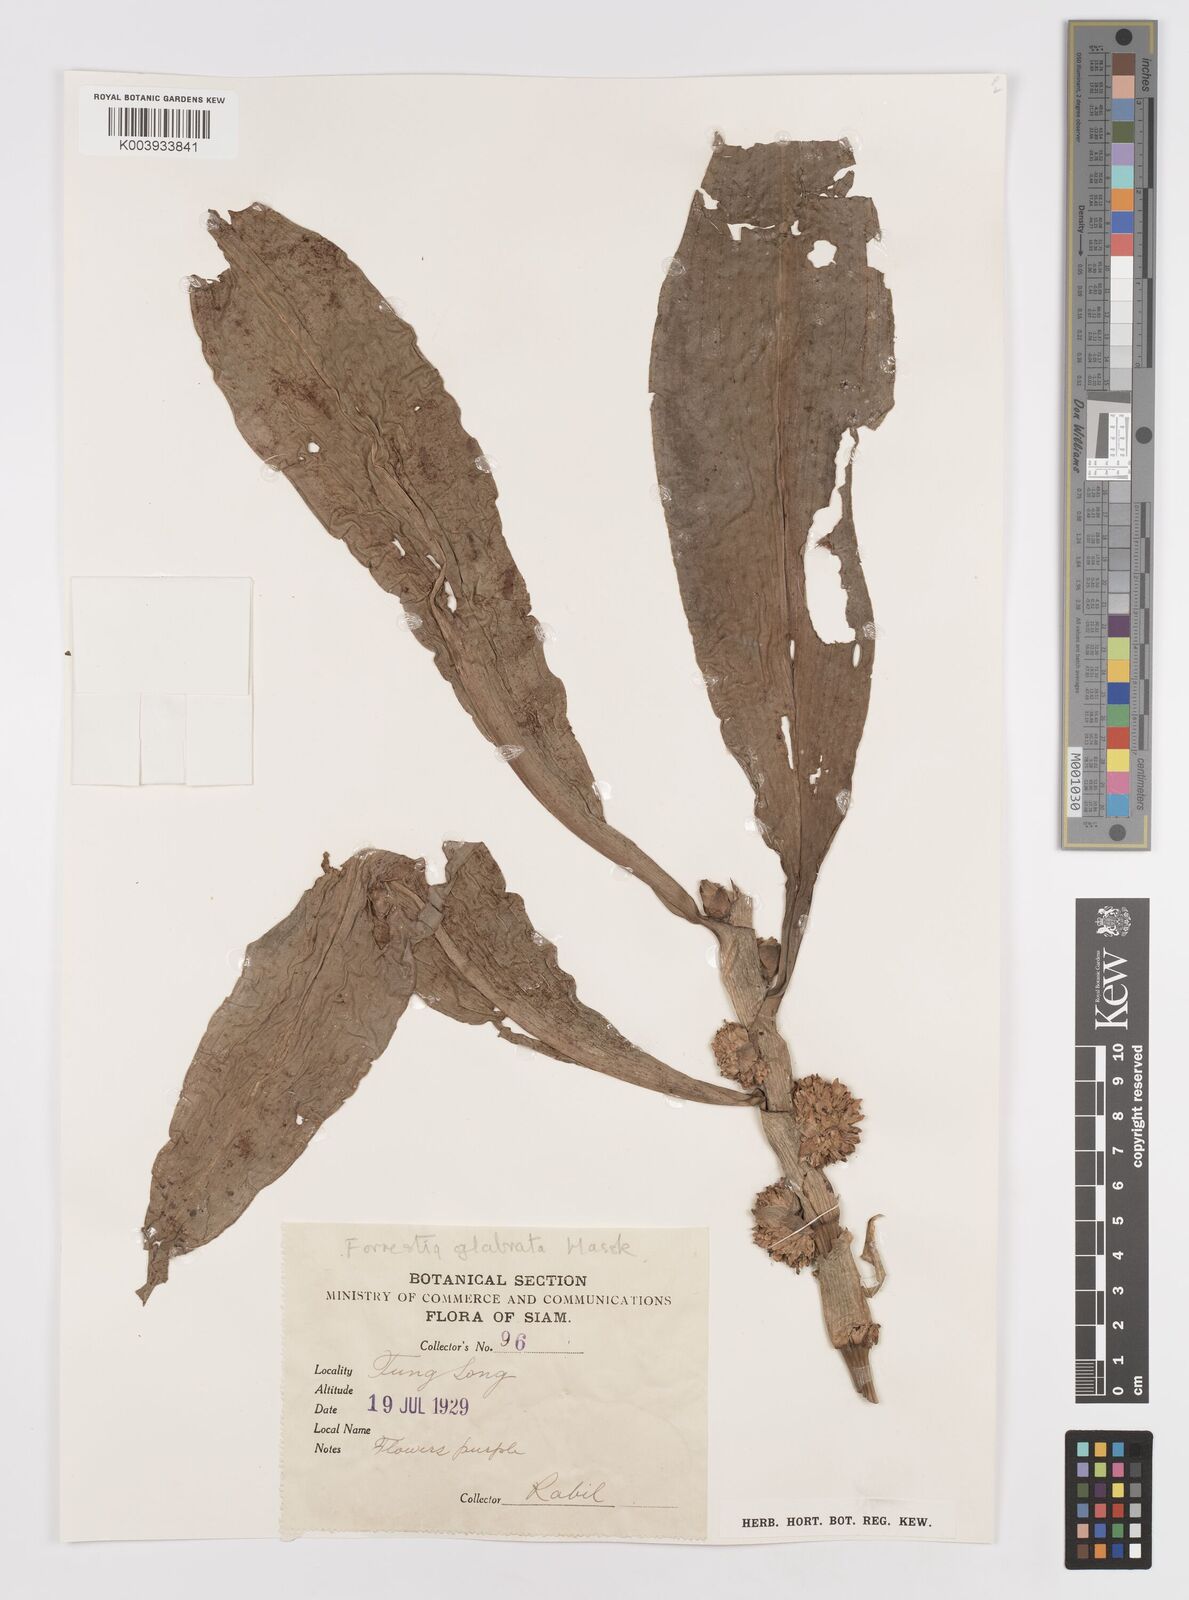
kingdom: Plantae
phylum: Tracheophyta
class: Liliopsida
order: Commelinales
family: Commelinaceae
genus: Amischotolype
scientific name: Amischotolype glabrata
